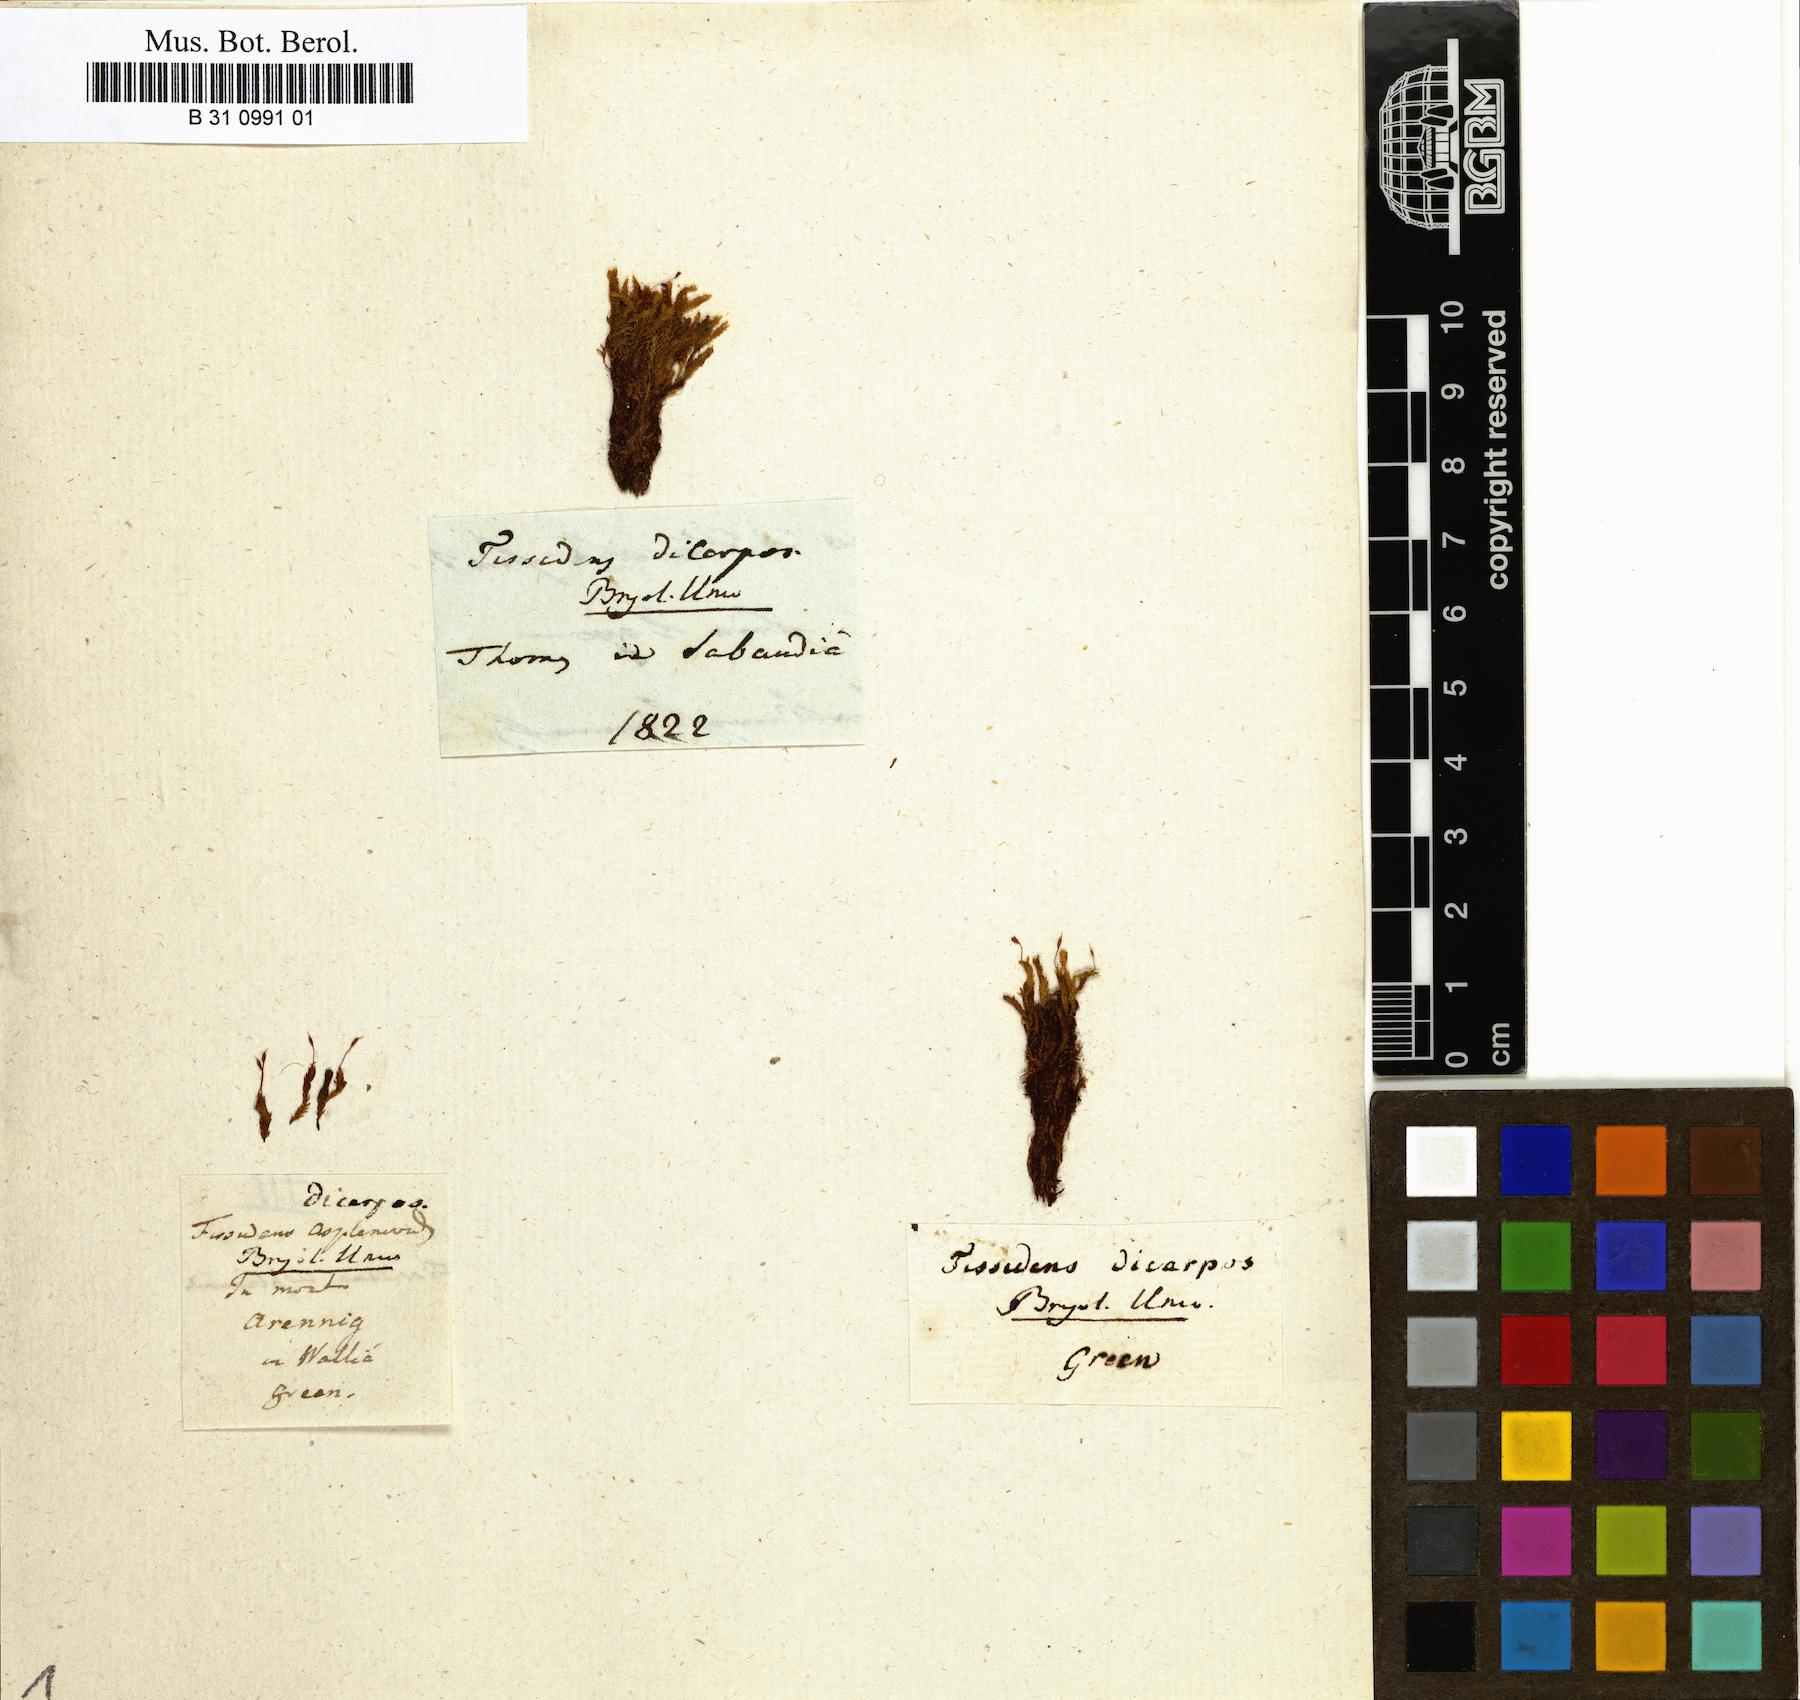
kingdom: Plantae
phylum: Bryophyta
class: Bryopsida
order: Dicranales
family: Fissidentaceae
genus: Fissidens
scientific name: Fissidens osmundioides
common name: Osmund fissidens moss
